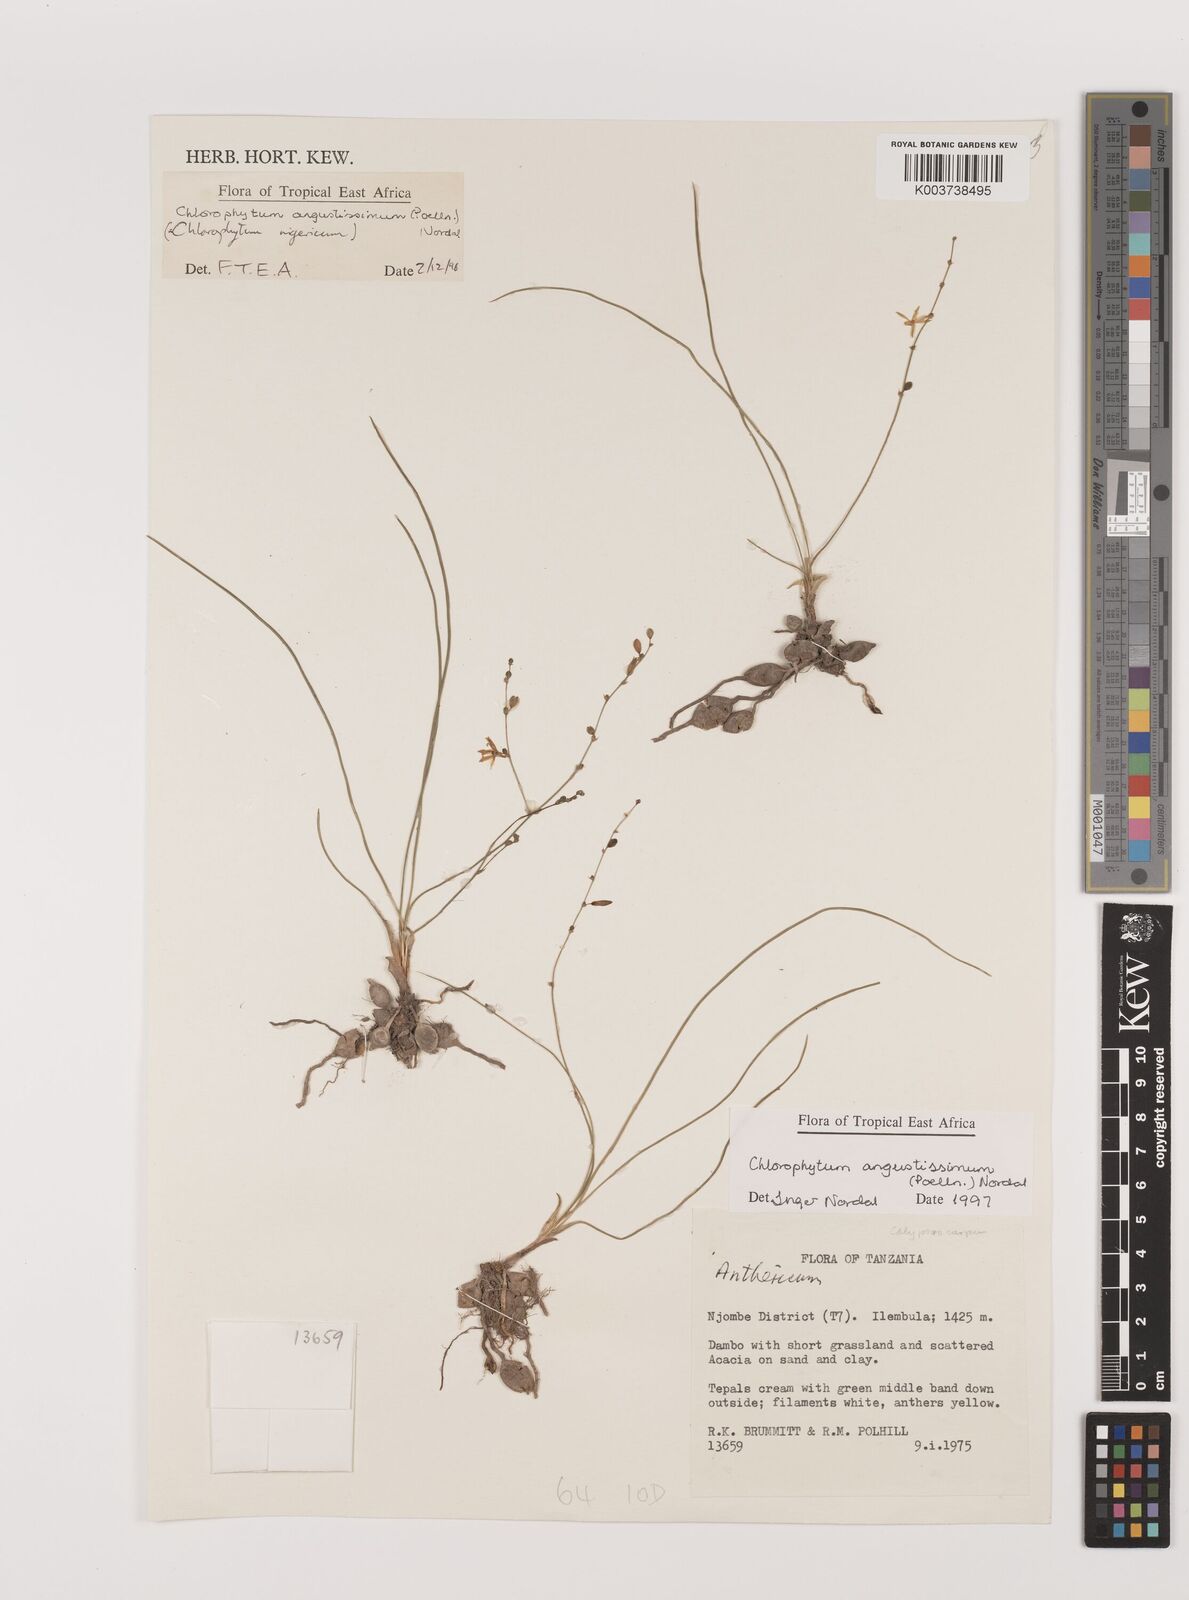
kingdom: Plantae
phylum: Tracheophyta
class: Liliopsida
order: Asparagales
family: Asparagaceae
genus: Chlorophytum
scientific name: Chlorophytum angustissimum
